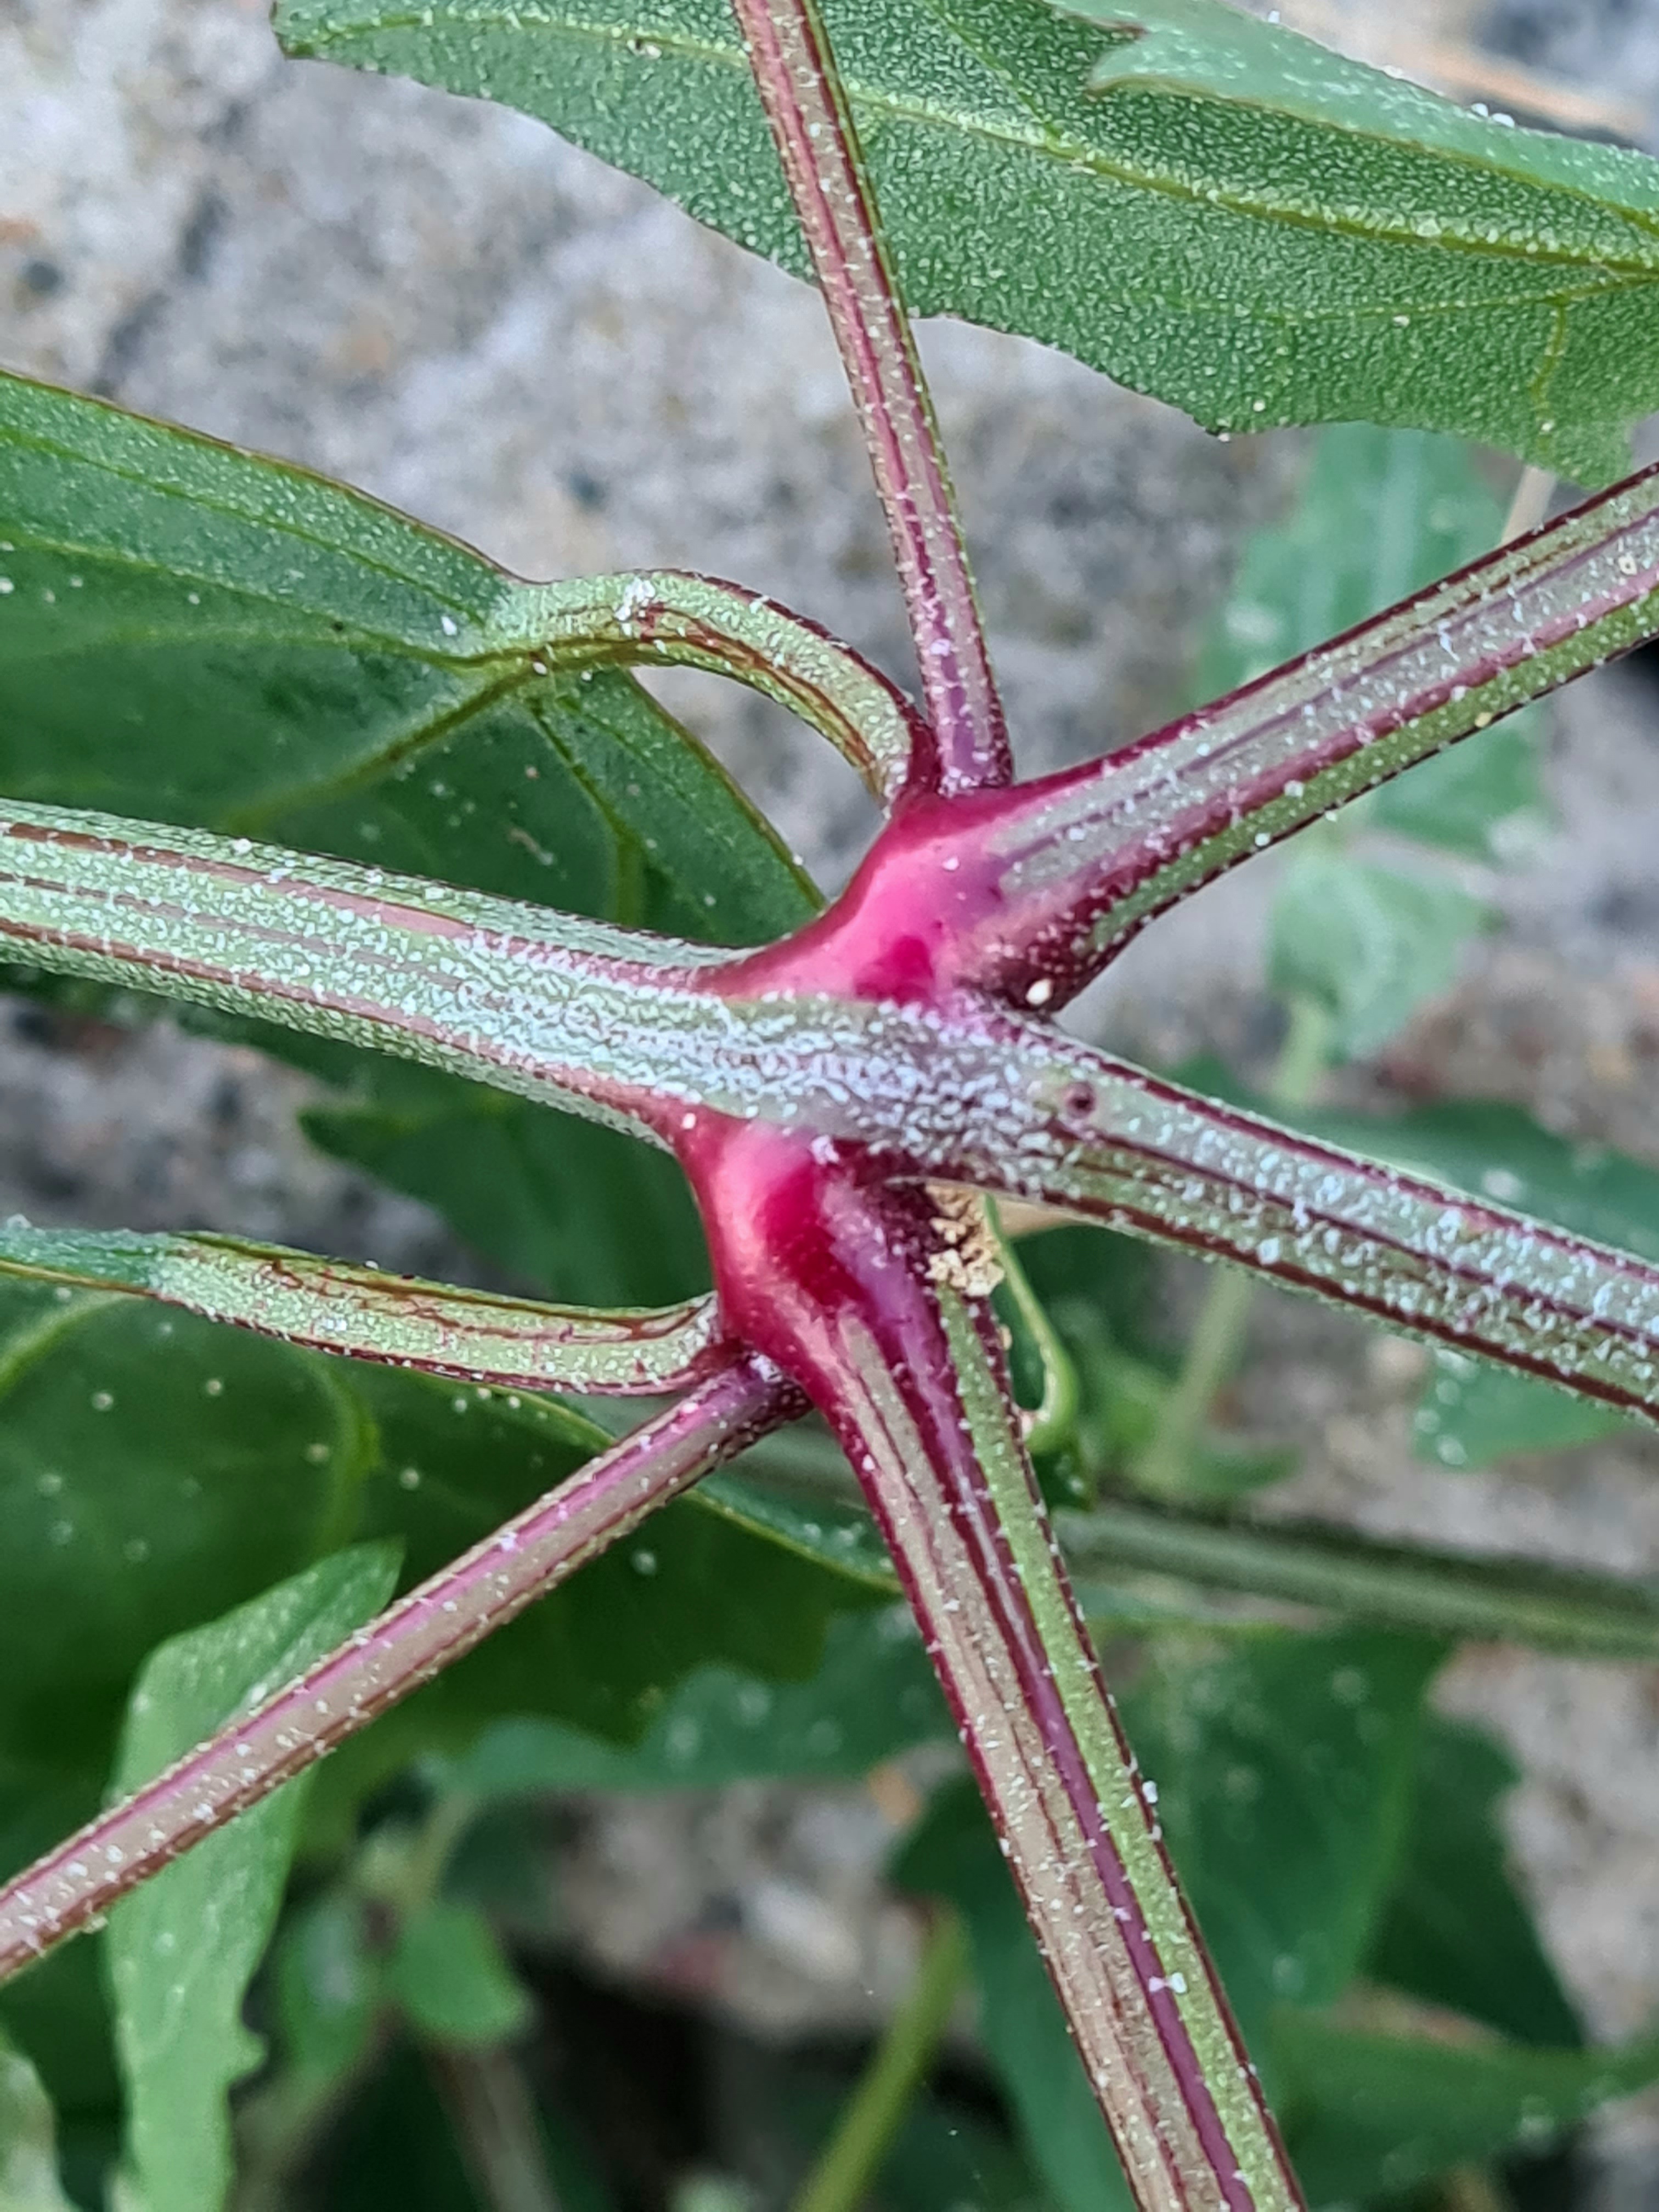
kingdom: Plantae
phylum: Tracheophyta
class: Magnoliopsida
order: Caryophyllales
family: Amaranthaceae
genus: Atriplex
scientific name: Atriplex prostrata
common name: Spyd-mælde
